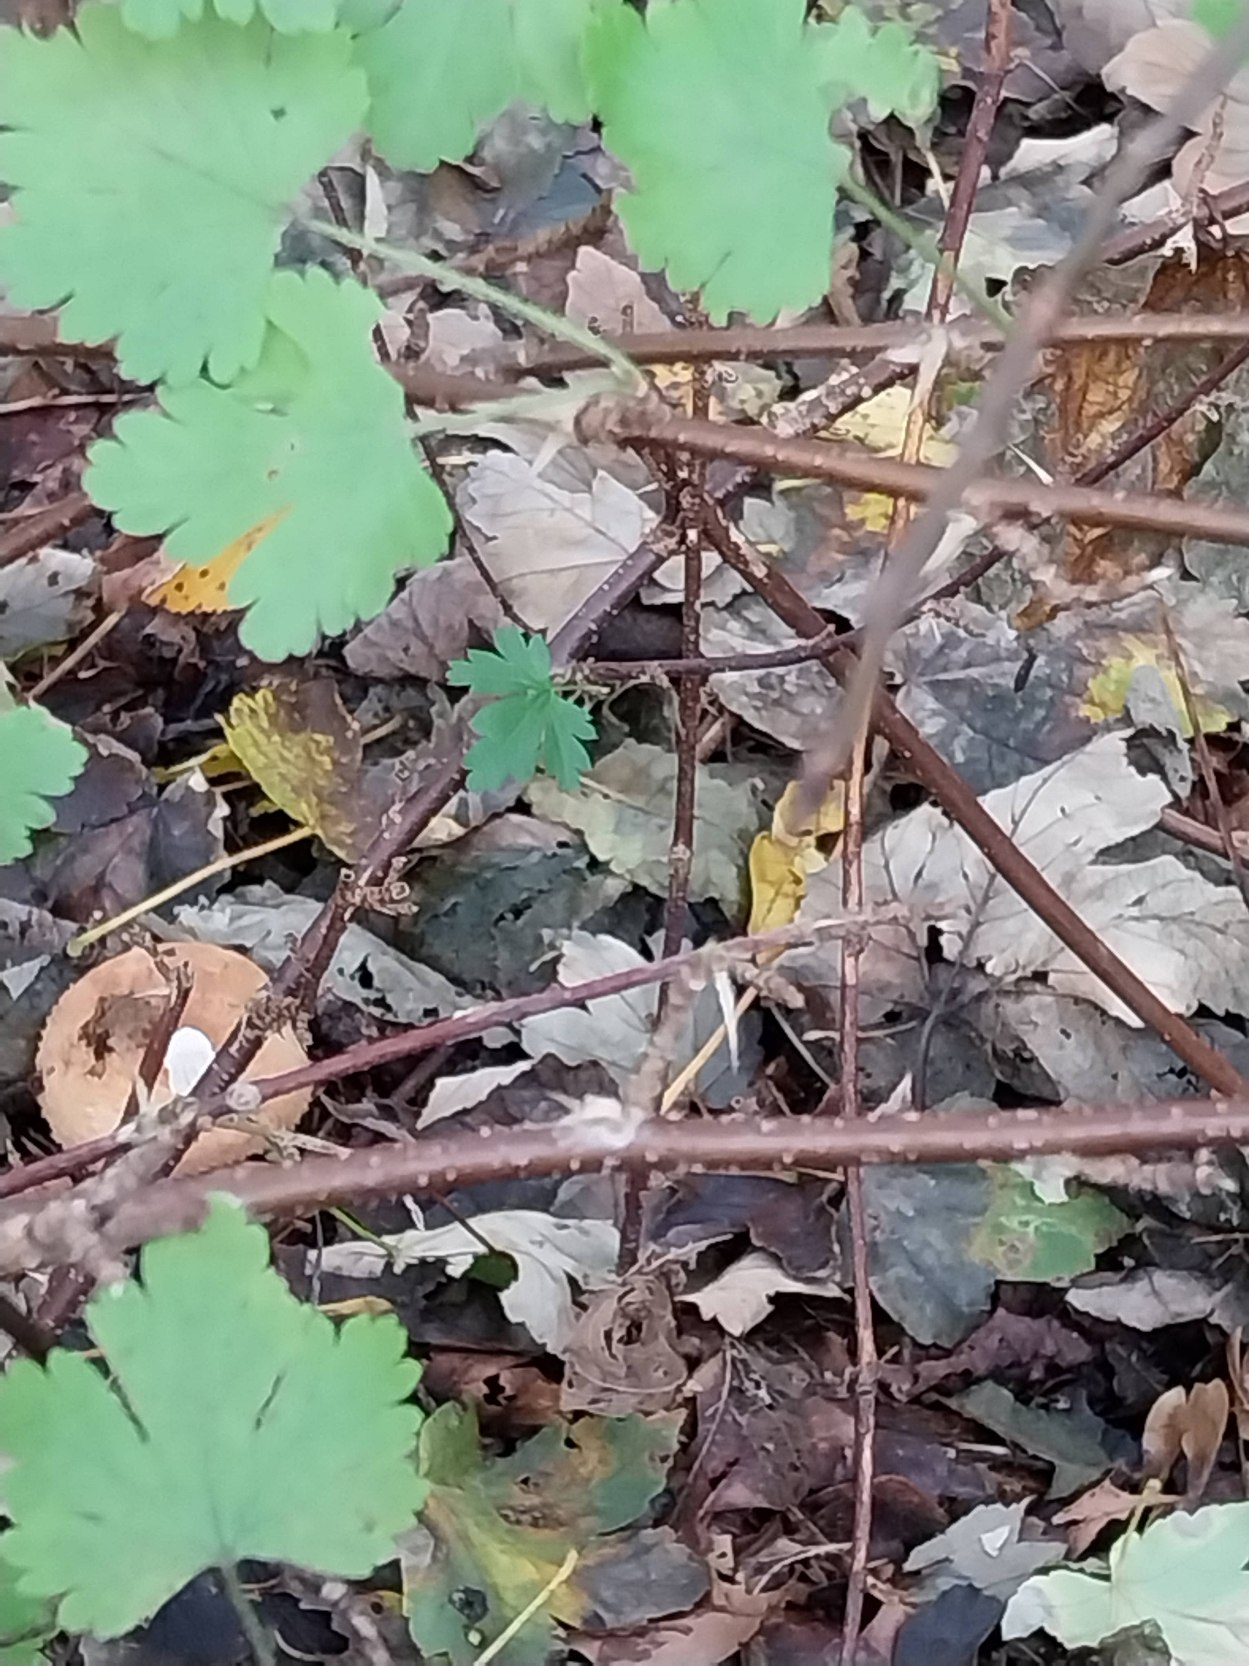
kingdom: Plantae
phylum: Tracheophyta
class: Magnoliopsida
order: Saxifragales
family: Grossulariaceae
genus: Ribes
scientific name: Ribes uva-crispa
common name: Stikkelsbær
